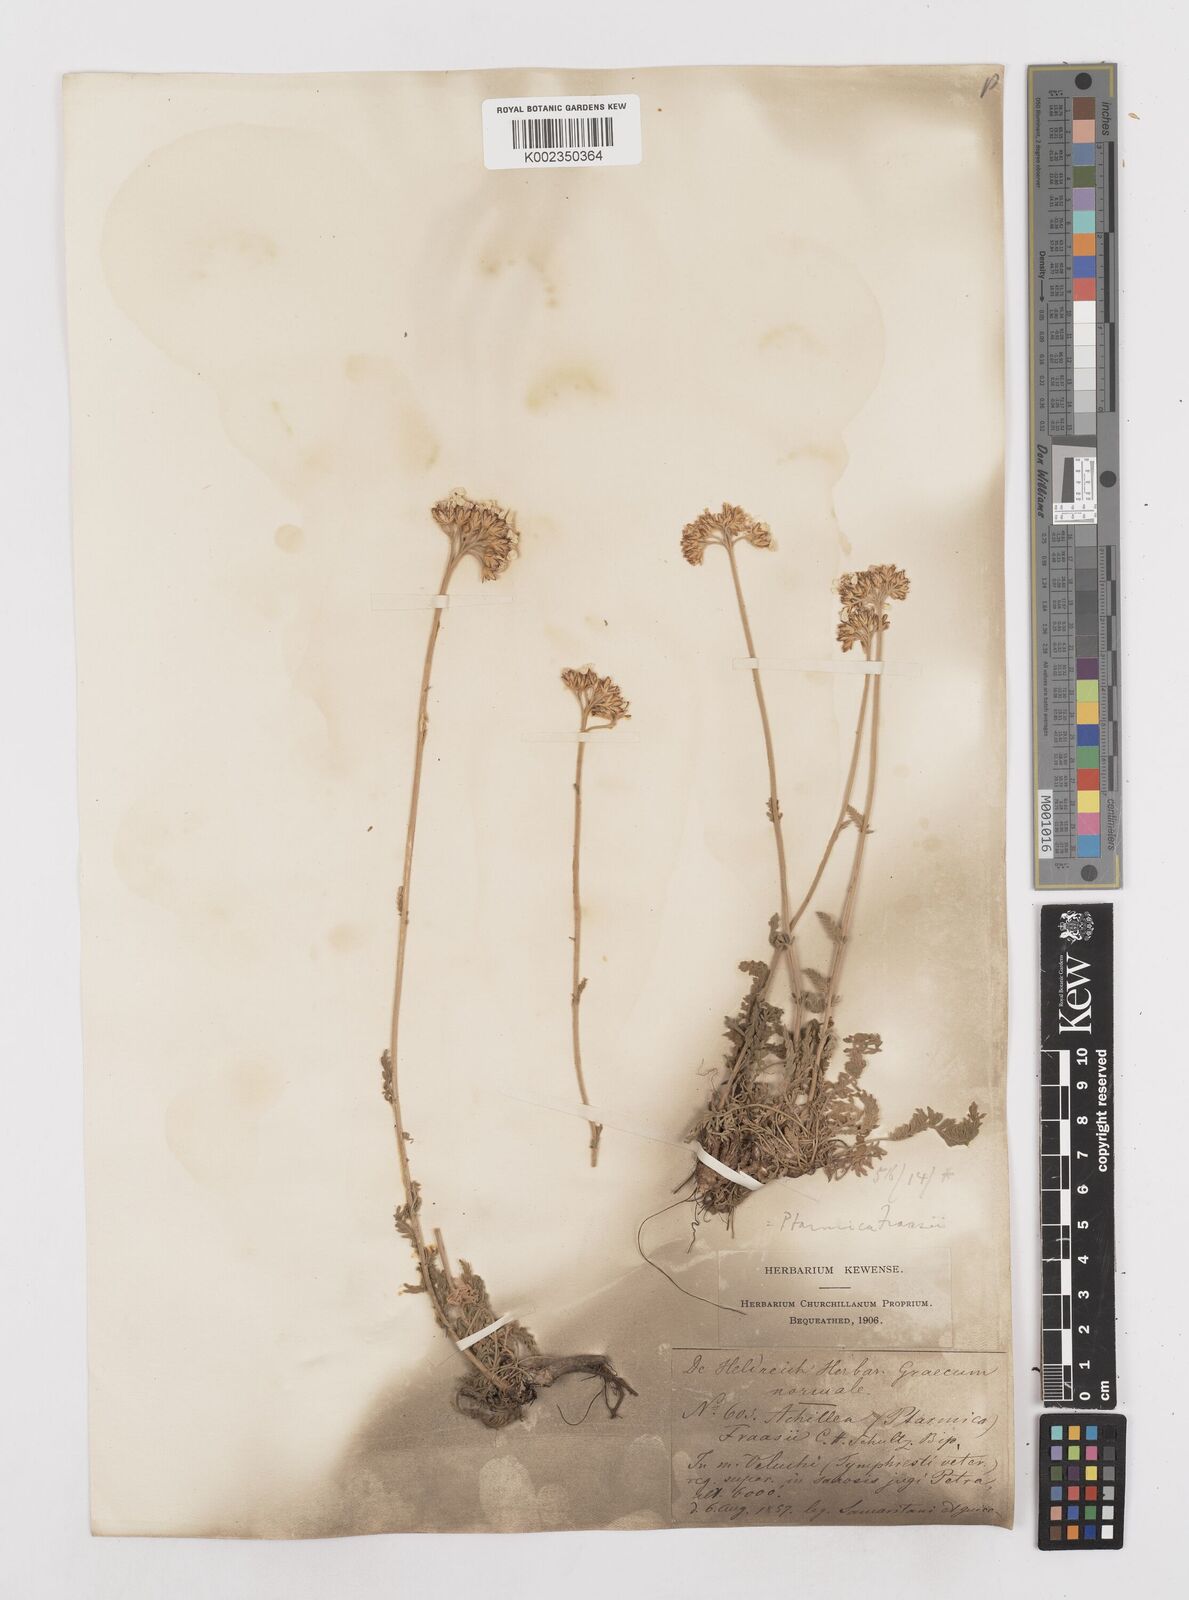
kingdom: Plantae
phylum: Tracheophyta
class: Magnoliopsida
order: Asterales
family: Asteraceae
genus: Achillea
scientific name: Achillea fraasii
